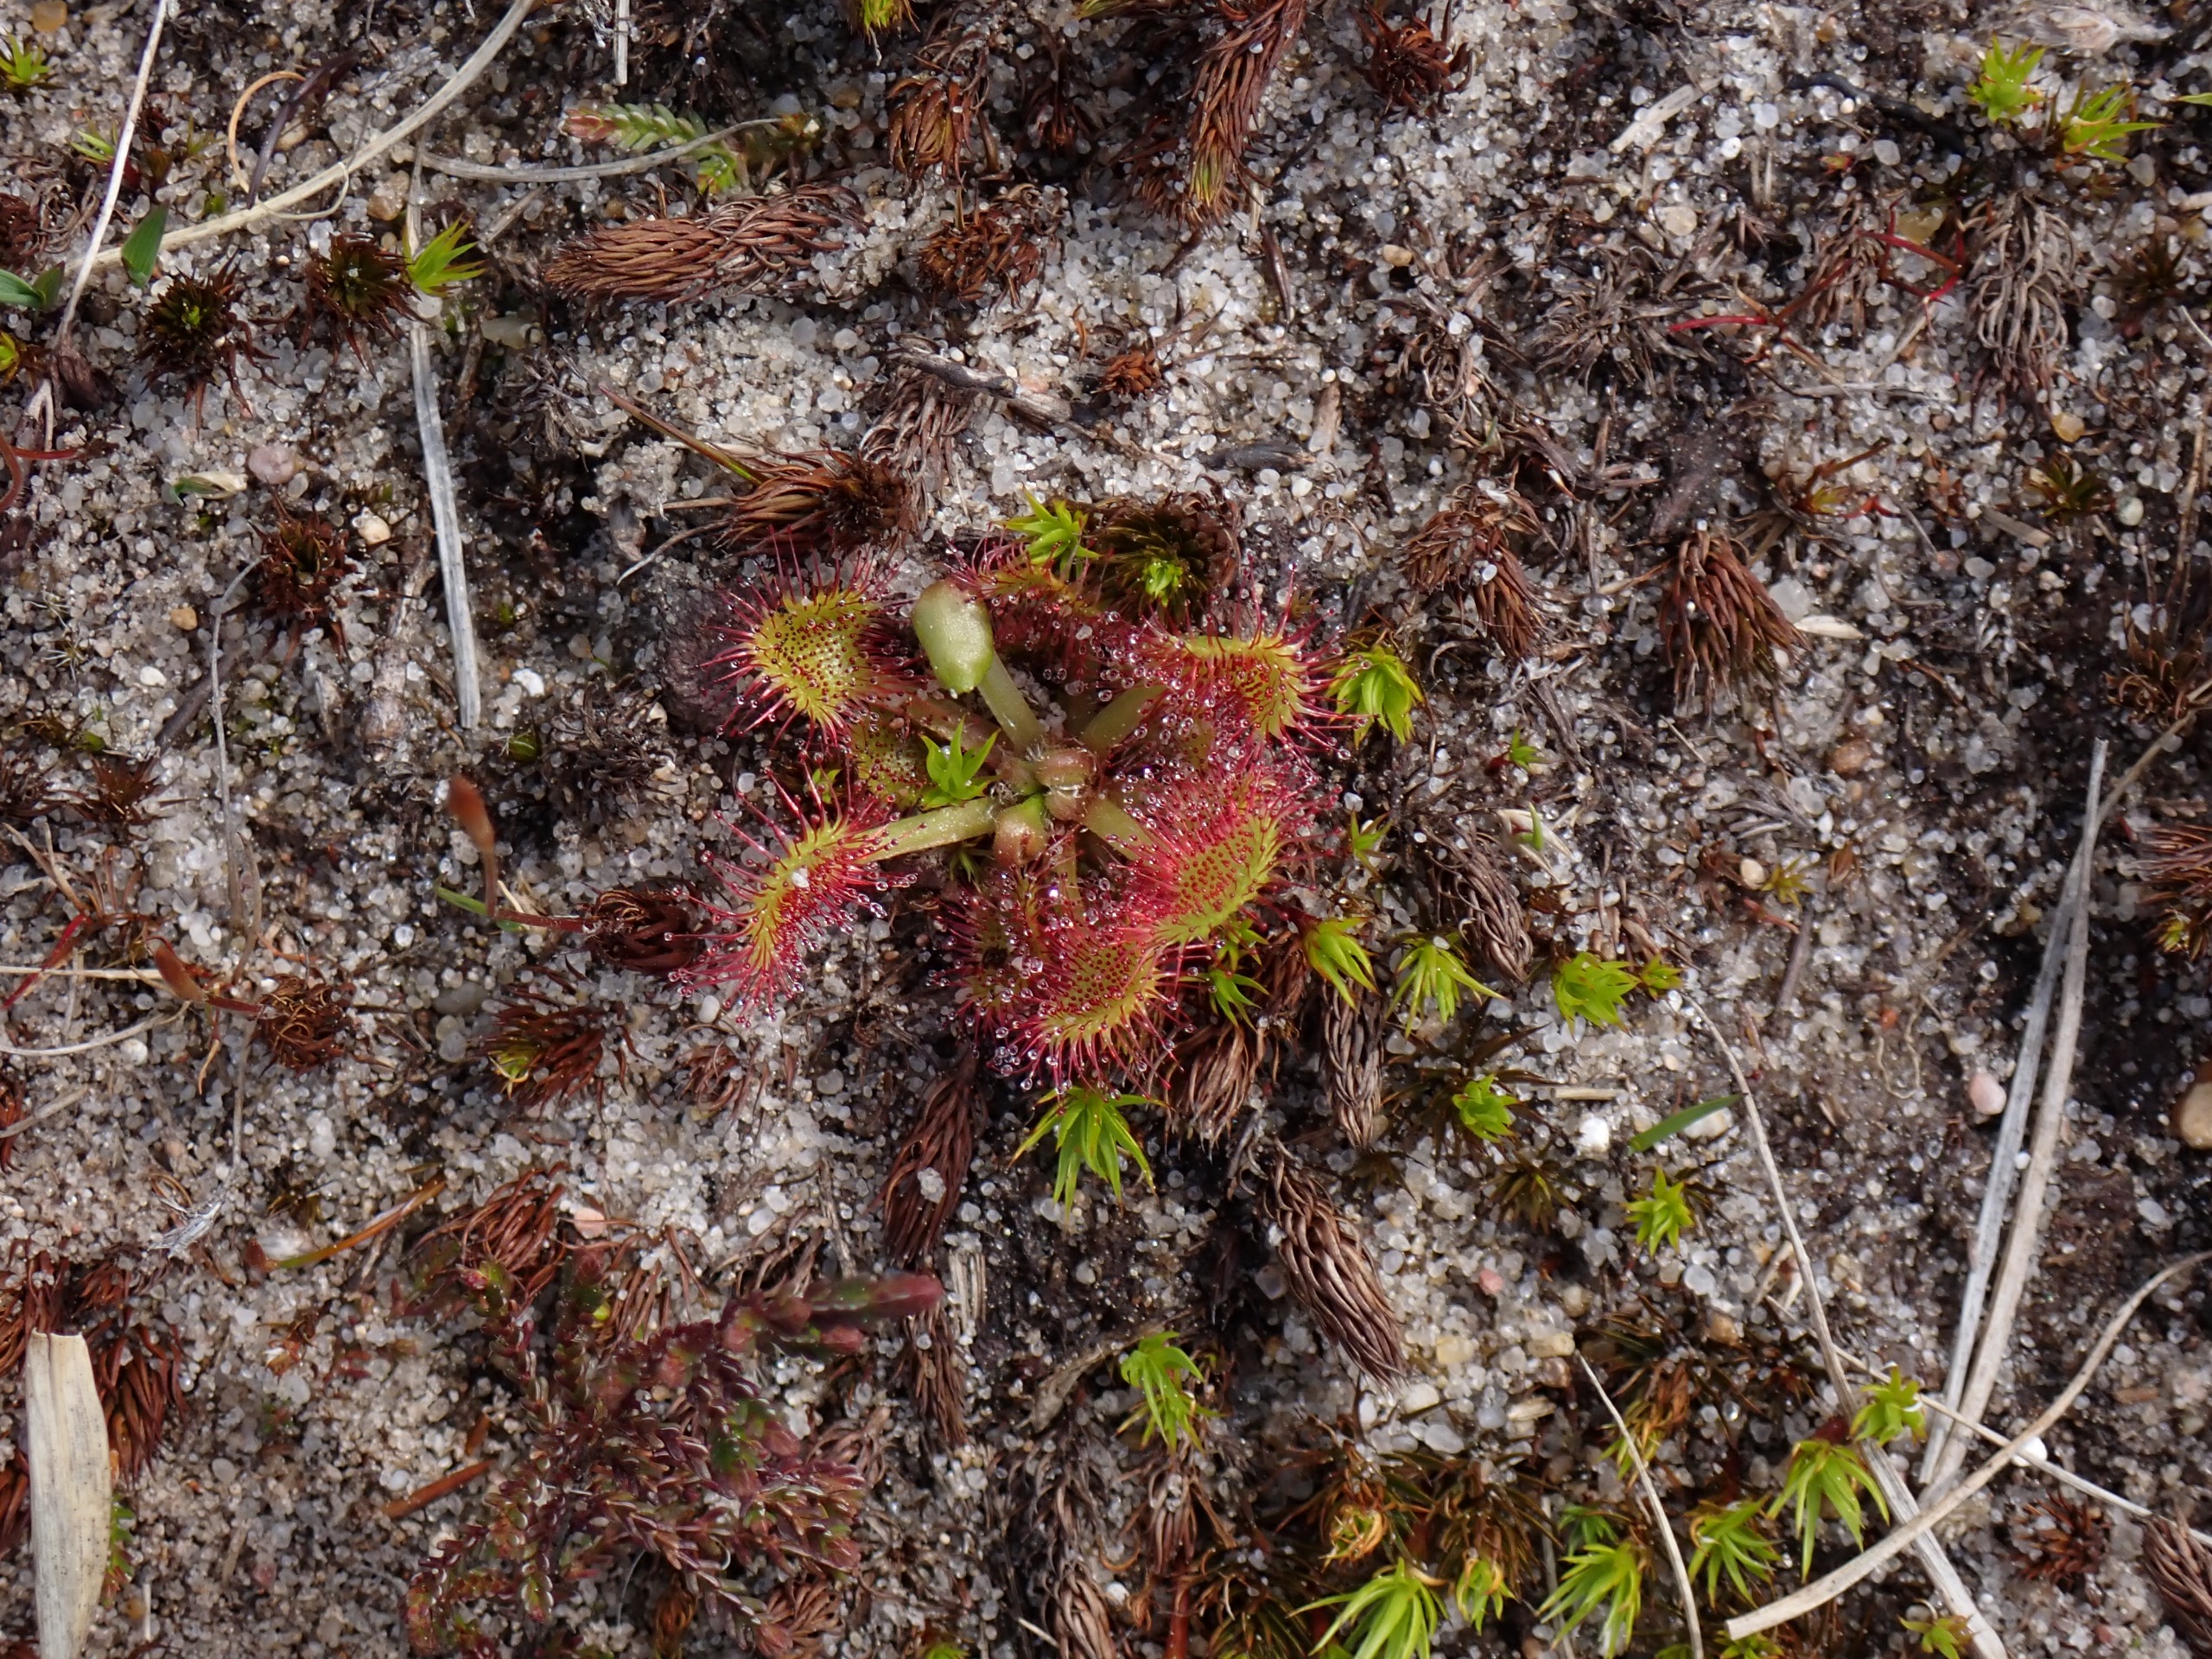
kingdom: Plantae
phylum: Tracheophyta
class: Magnoliopsida
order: Caryophyllales
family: Droseraceae
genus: Drosera
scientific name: Drosera rotundifolia
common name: Rundbladet soldug
